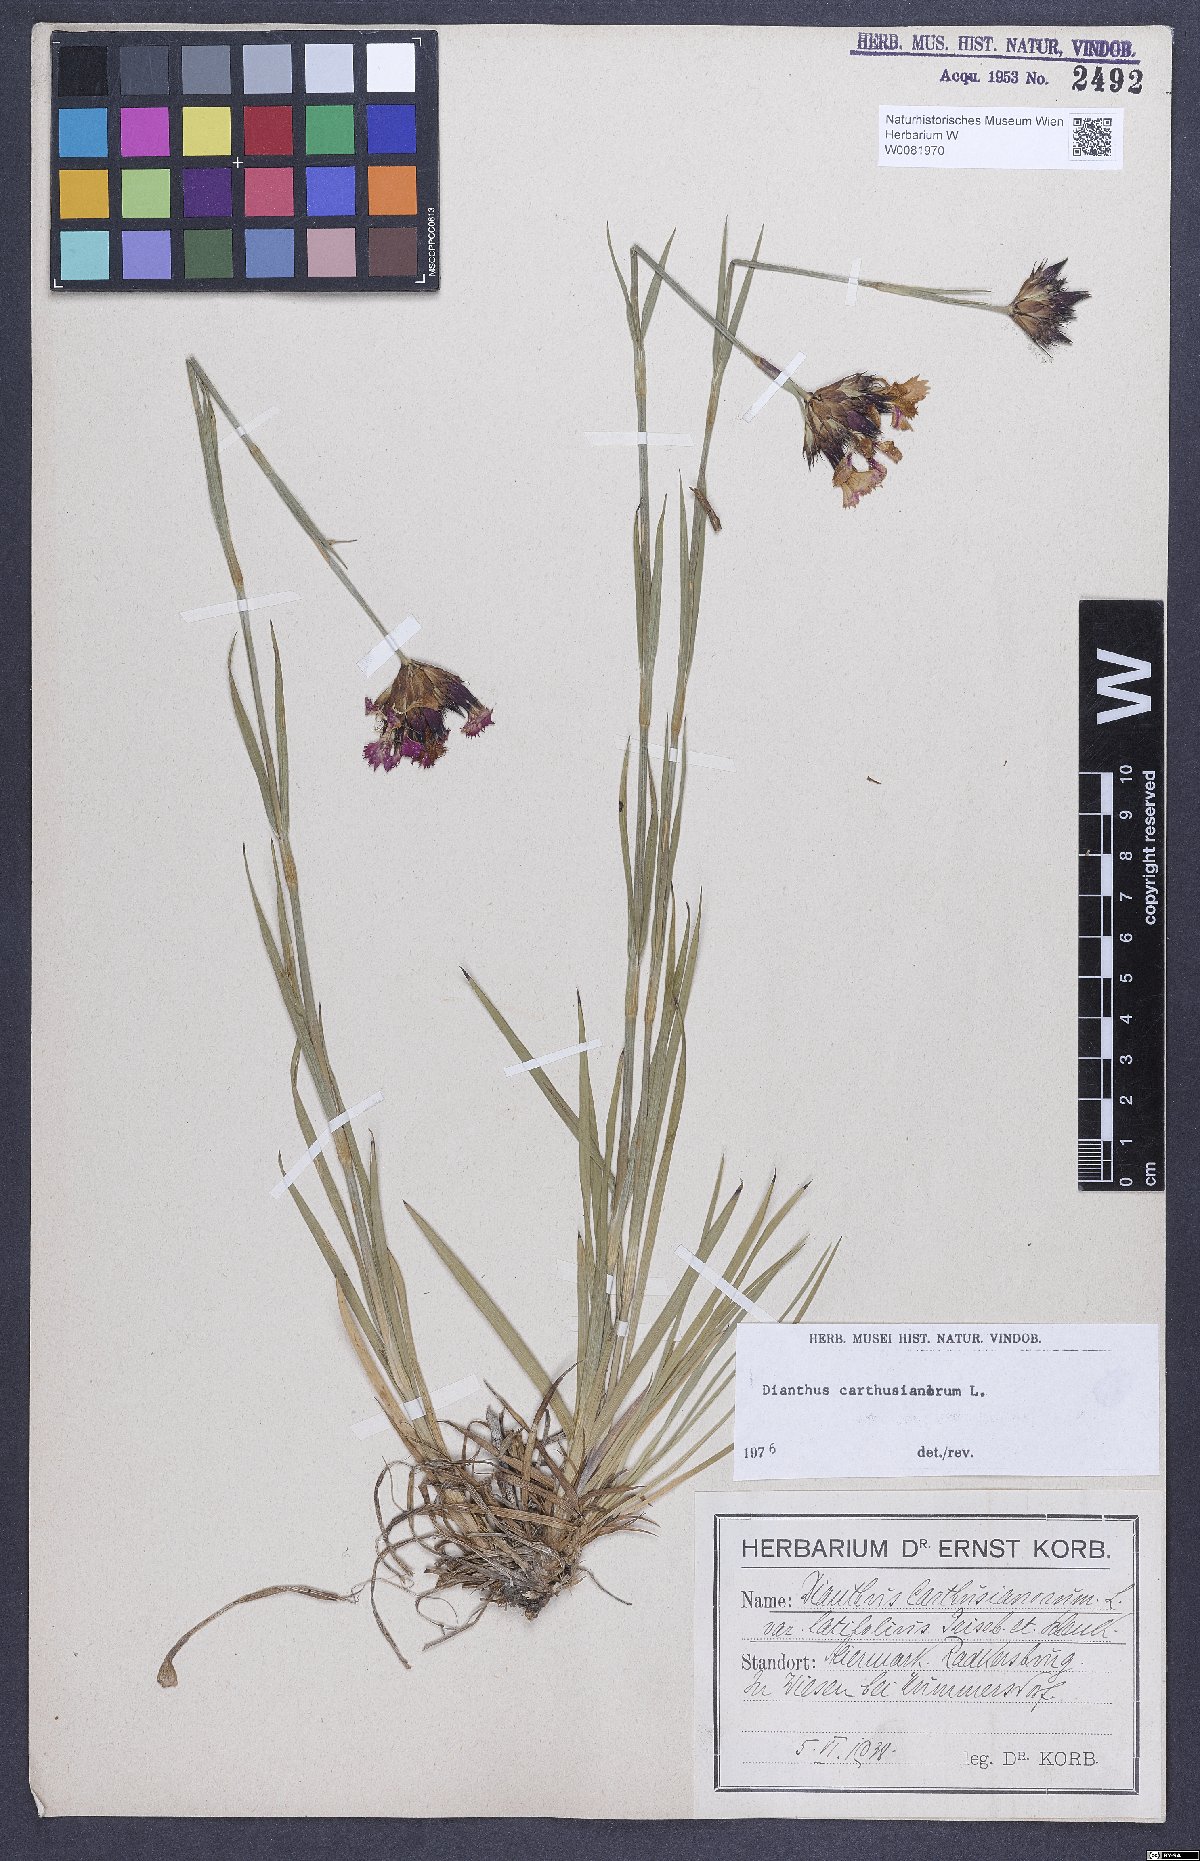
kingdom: Plantae
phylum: Tracheophyta
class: Magnoliopsida
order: Caryophyllales
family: Caryophyllaceae
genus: Dianthus
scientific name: Dianthus carthusianorum
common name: Carthusian pink
